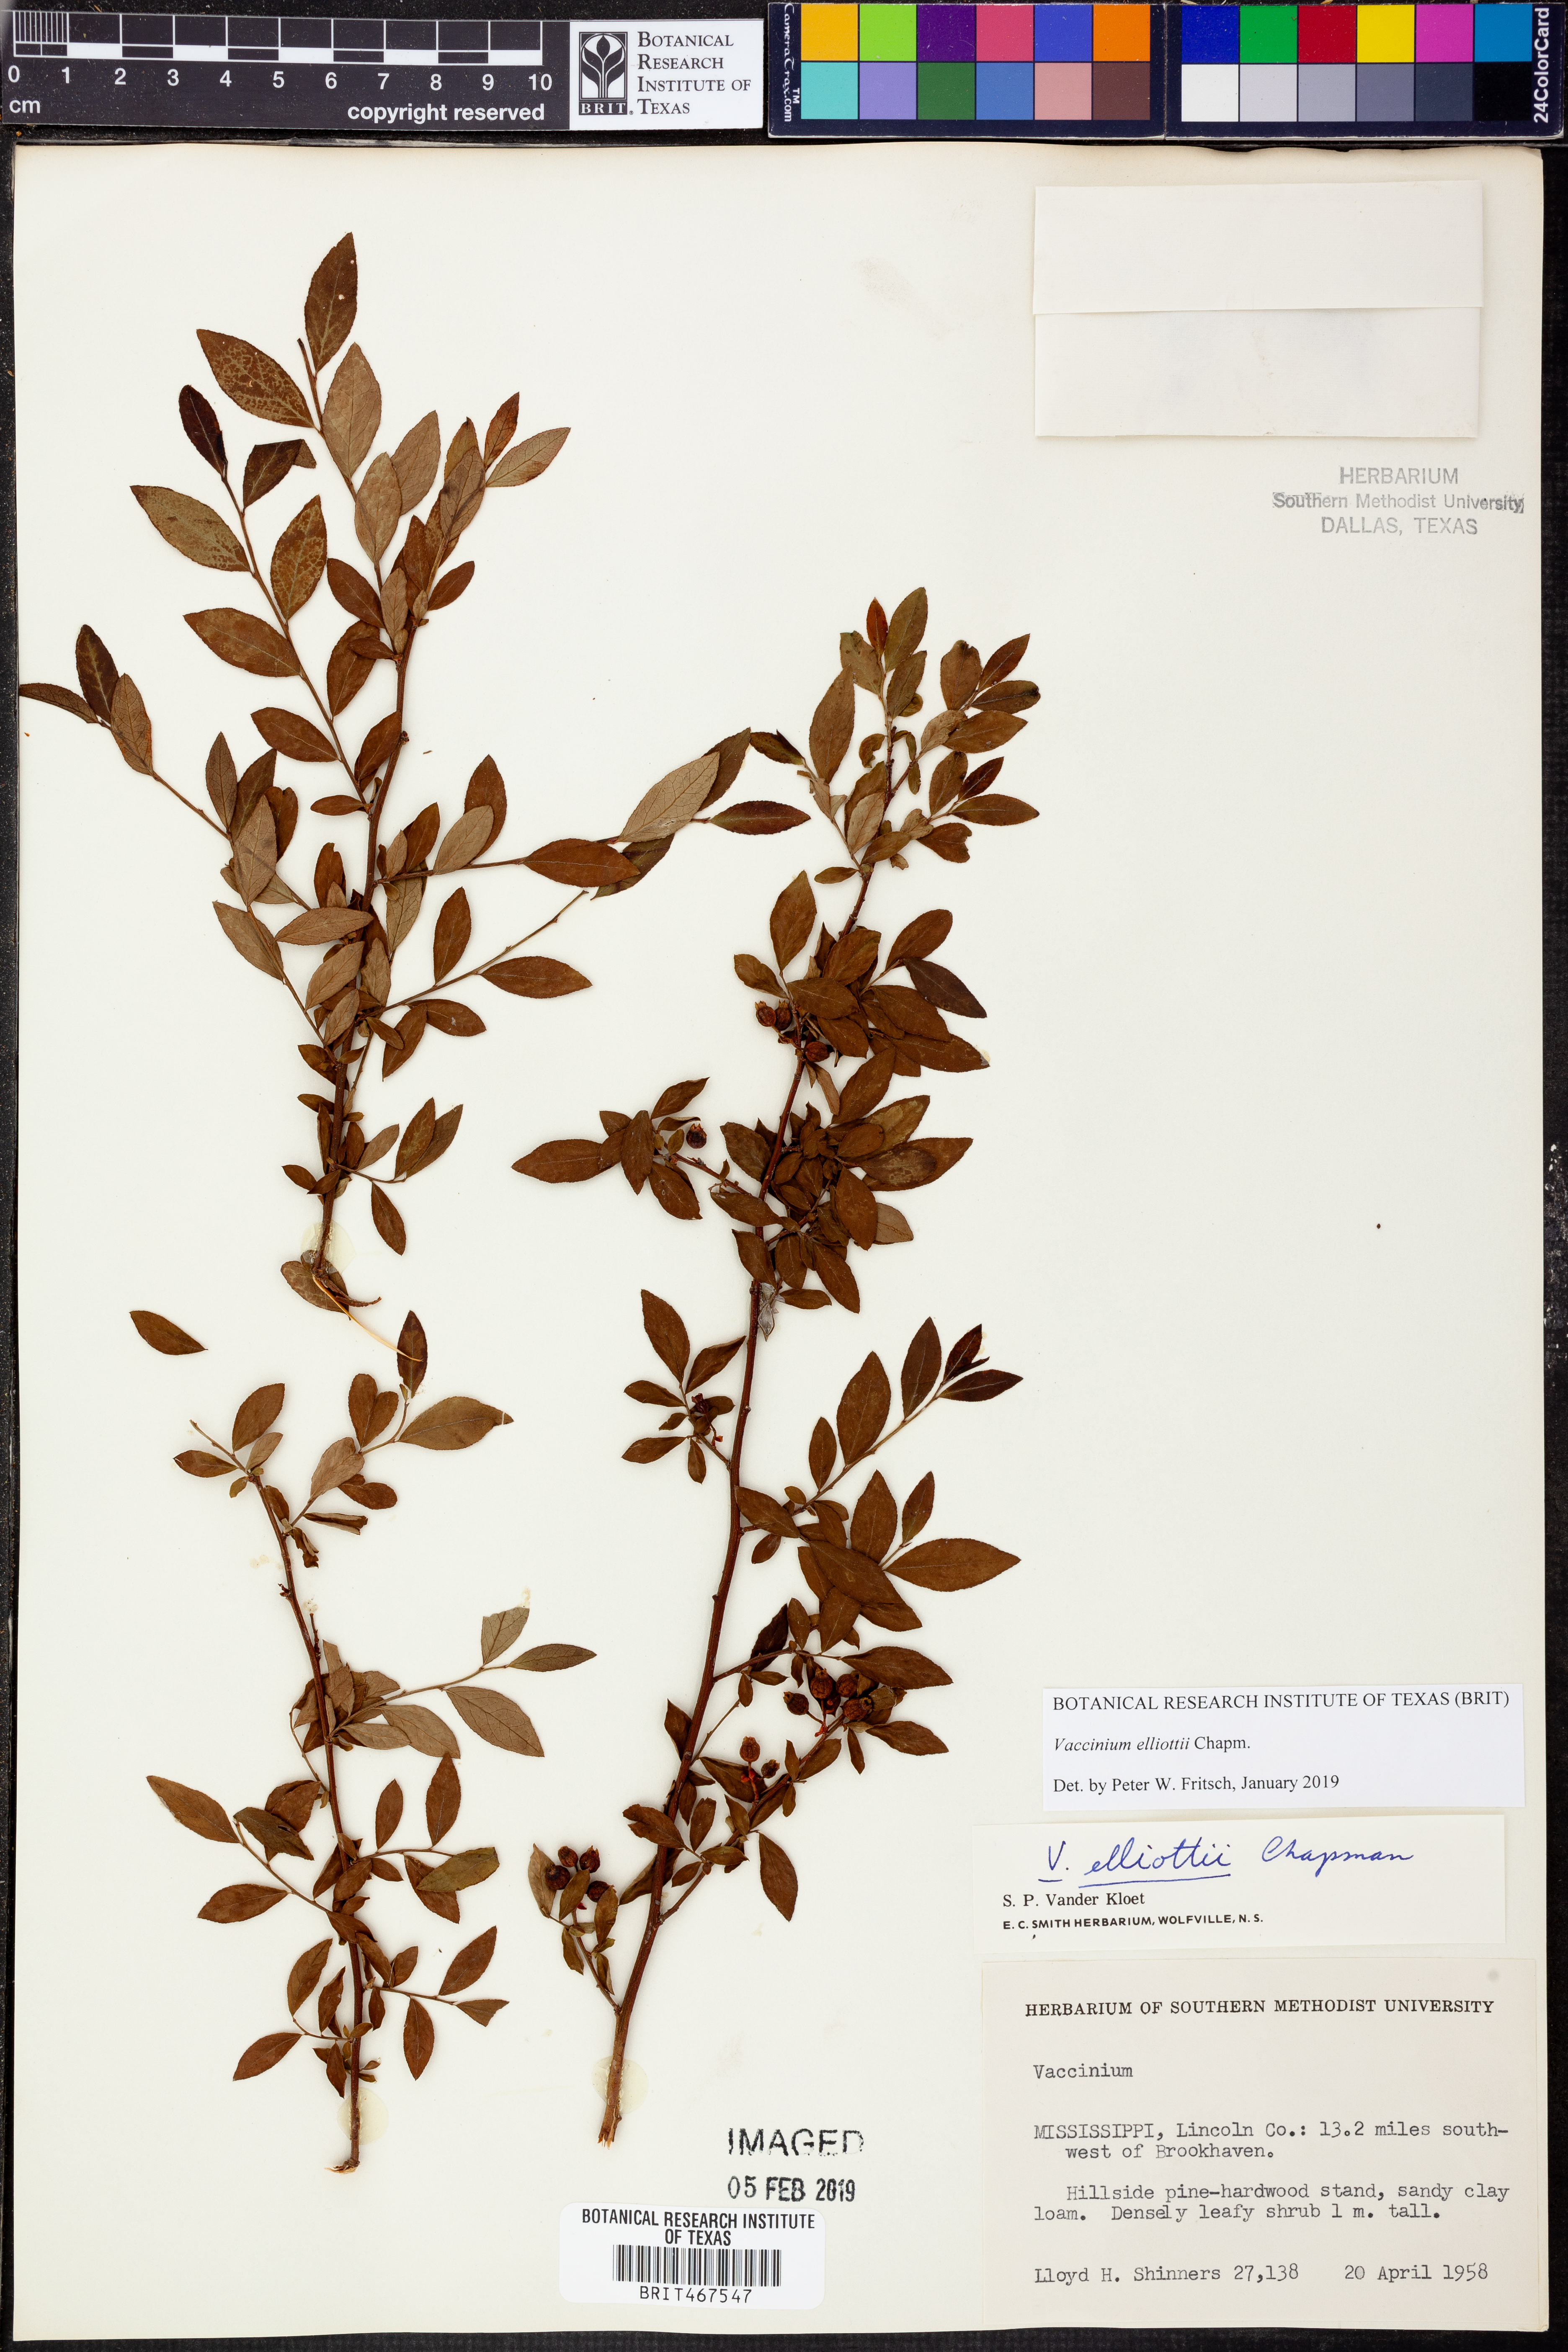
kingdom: Plantae
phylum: Tracheophyta
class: Magnoliopsida
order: Ericales
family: Ericaceae
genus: Vaccinium
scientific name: Vaccinium corymbosum
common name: Blueberry
